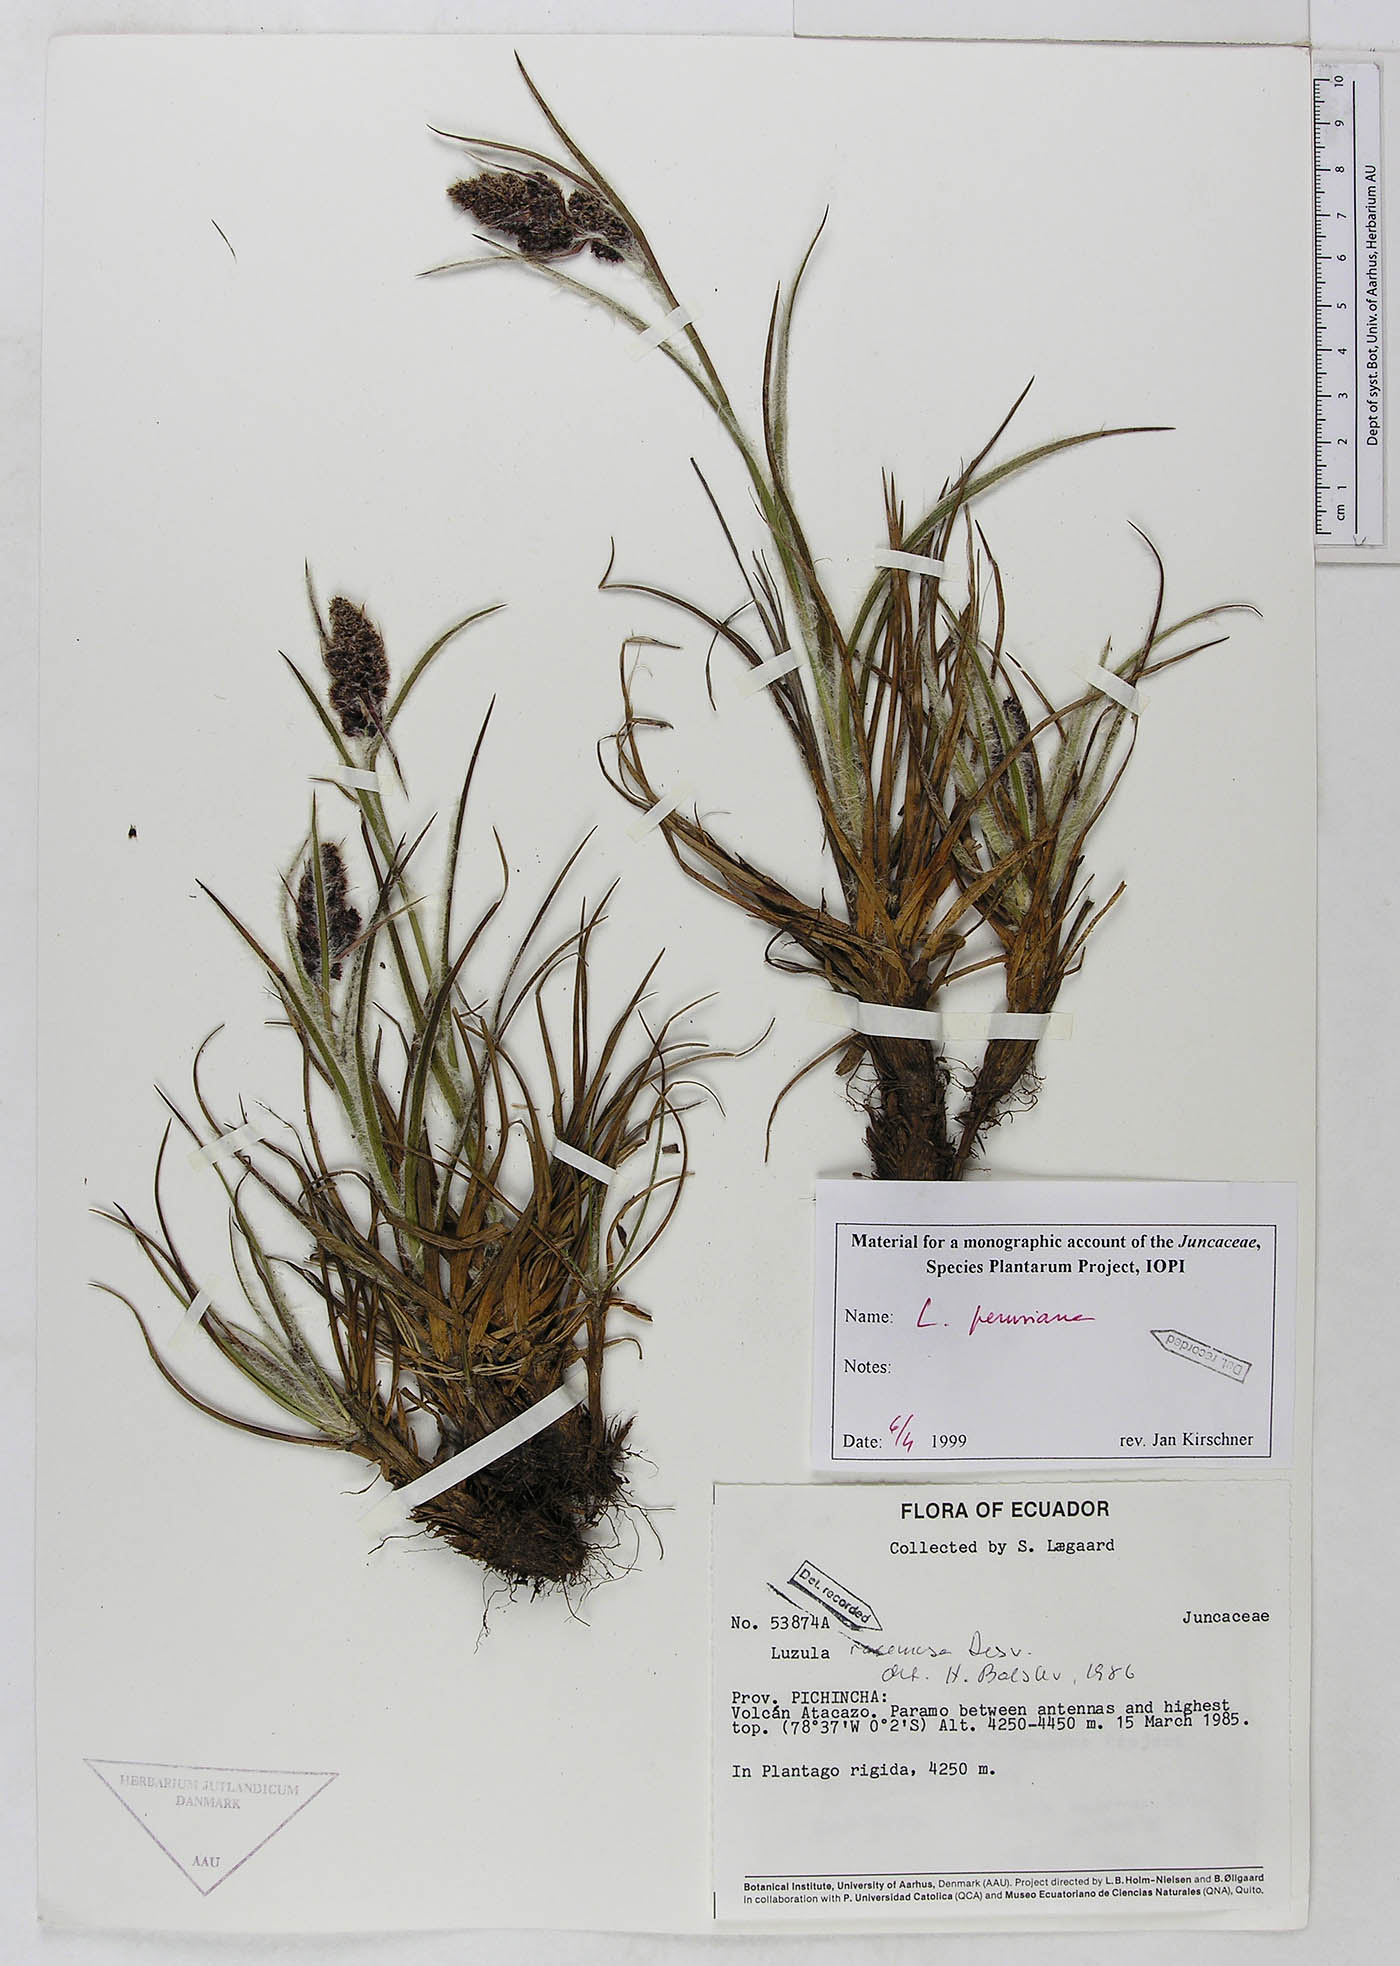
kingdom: Plantae
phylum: Tracheophyta
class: Liliopsida
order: Poales
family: Juncaceae
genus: Luzula
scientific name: Luzula peruviana
